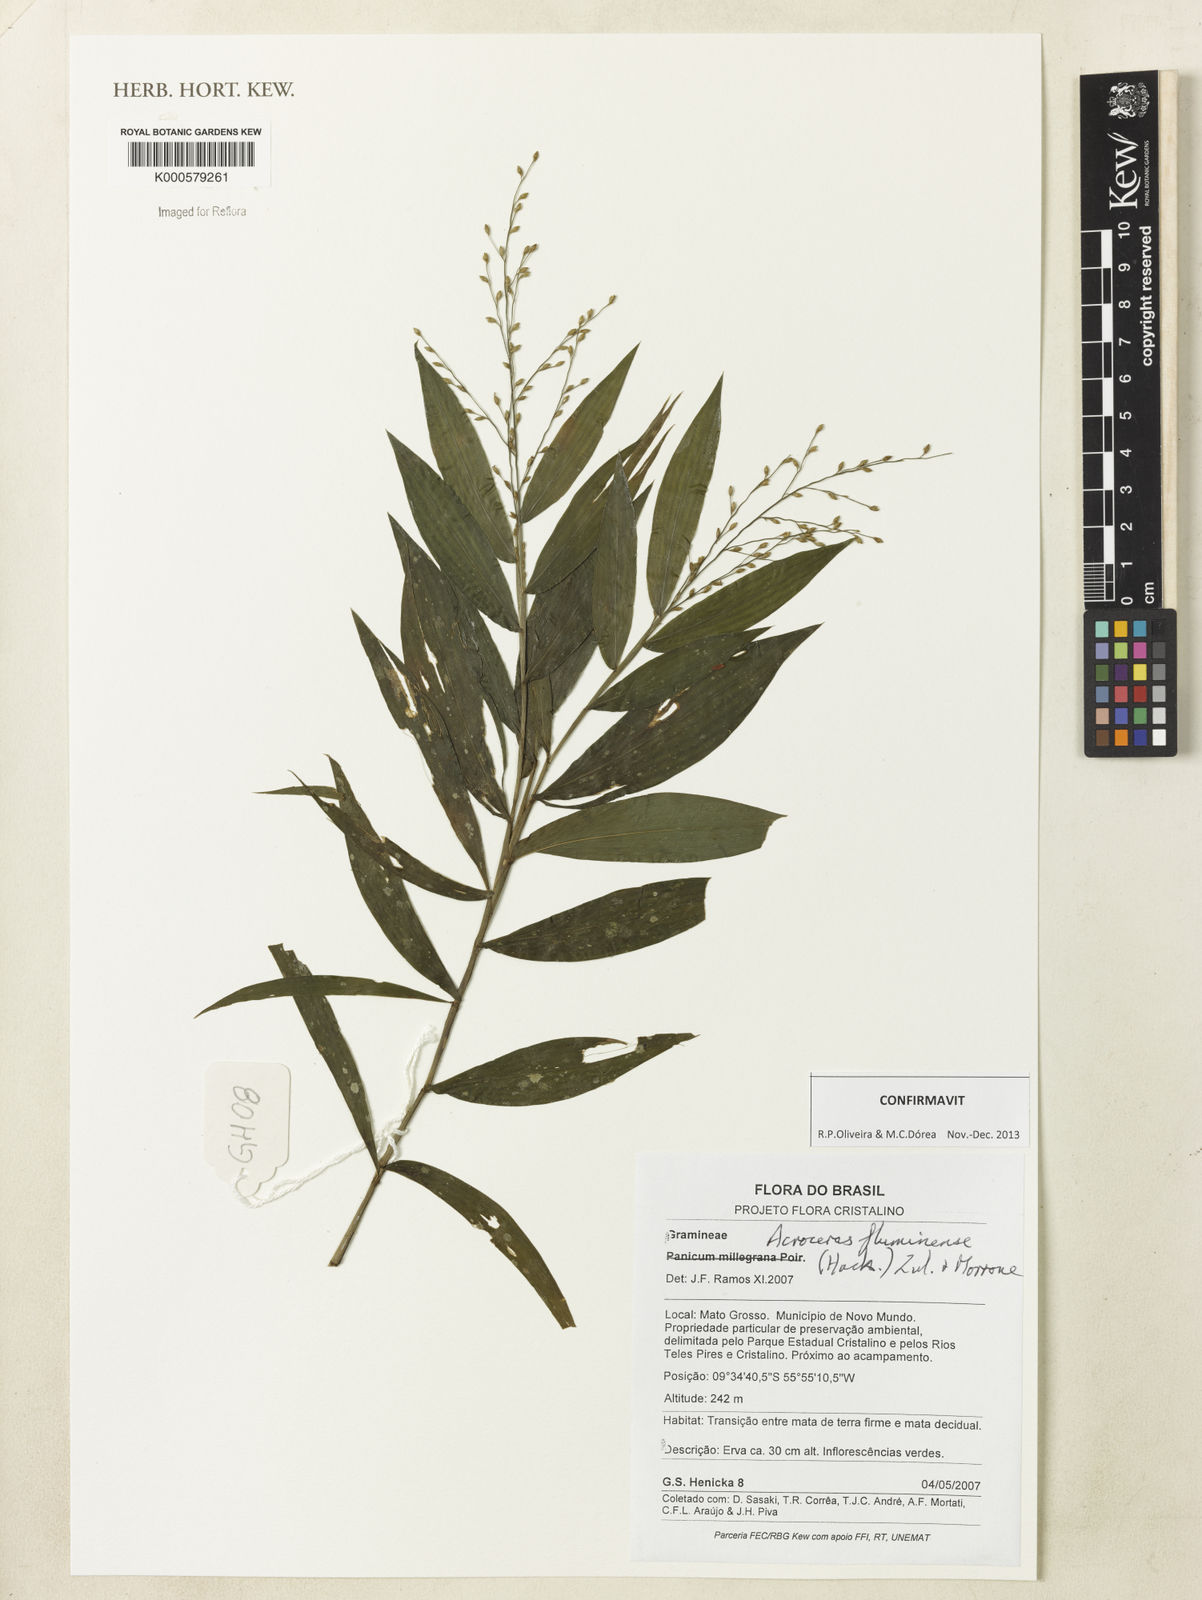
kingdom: Plantae
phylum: Tracheophyta
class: Liliopsida
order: Poales
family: Poaceae
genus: Acroceras
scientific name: Acroceras fluminense
